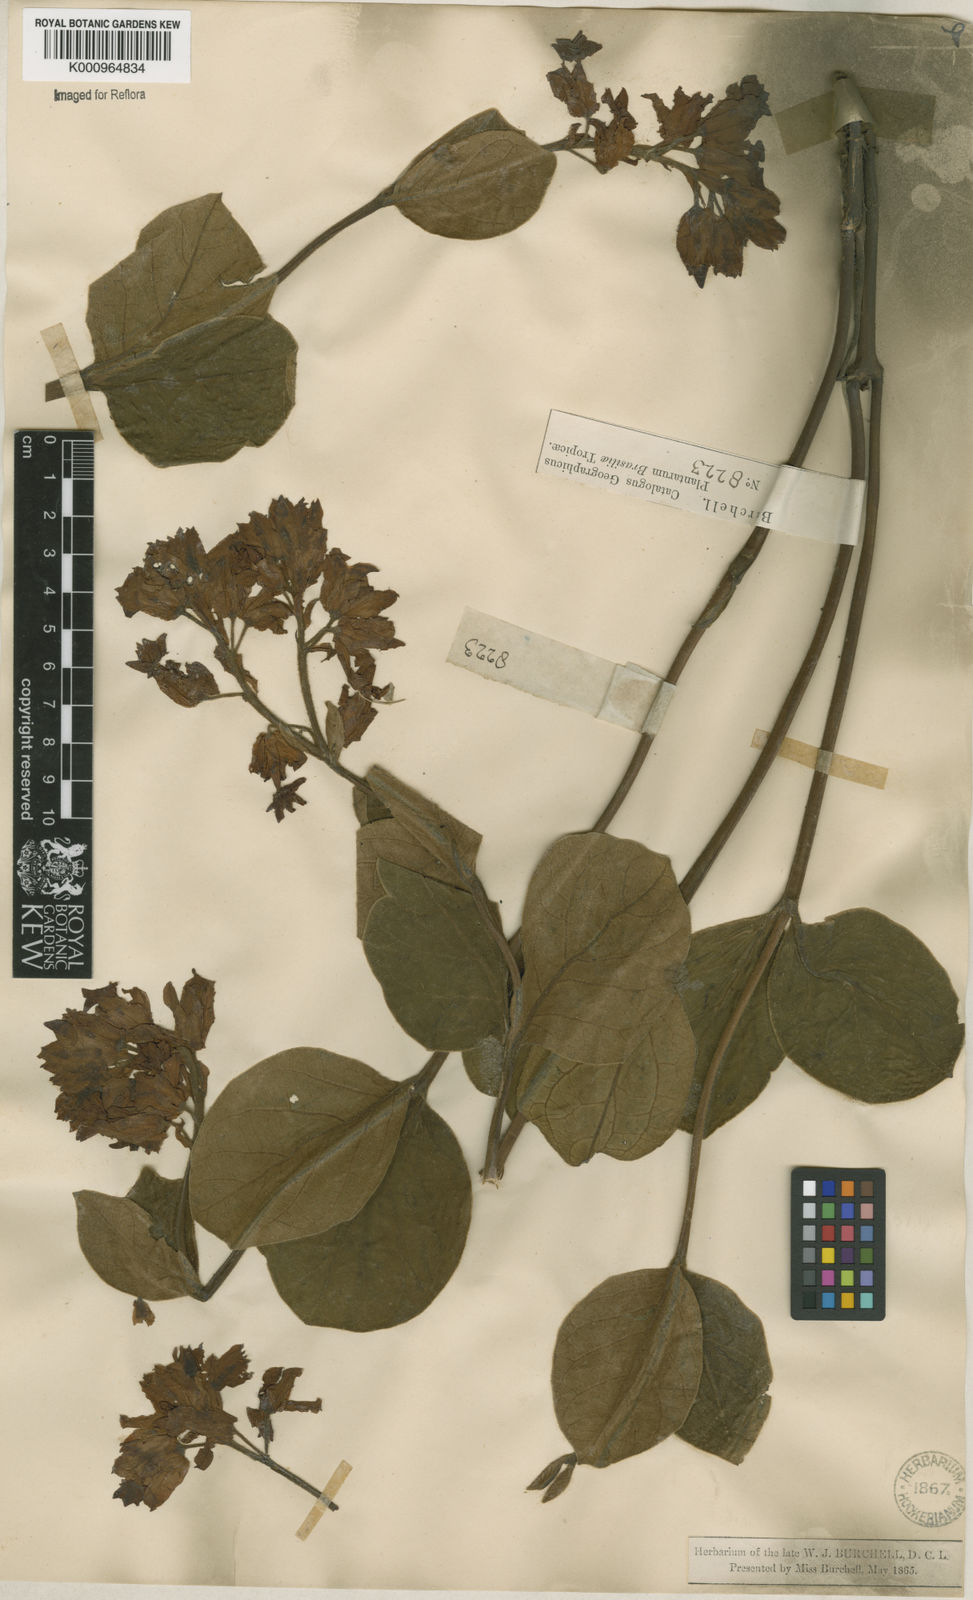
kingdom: Plantae
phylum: Tracheophyta
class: Magnoliopsida
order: Gentianales
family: Apocynaceae
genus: Rhodocalyx
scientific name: Rhodocalyx
